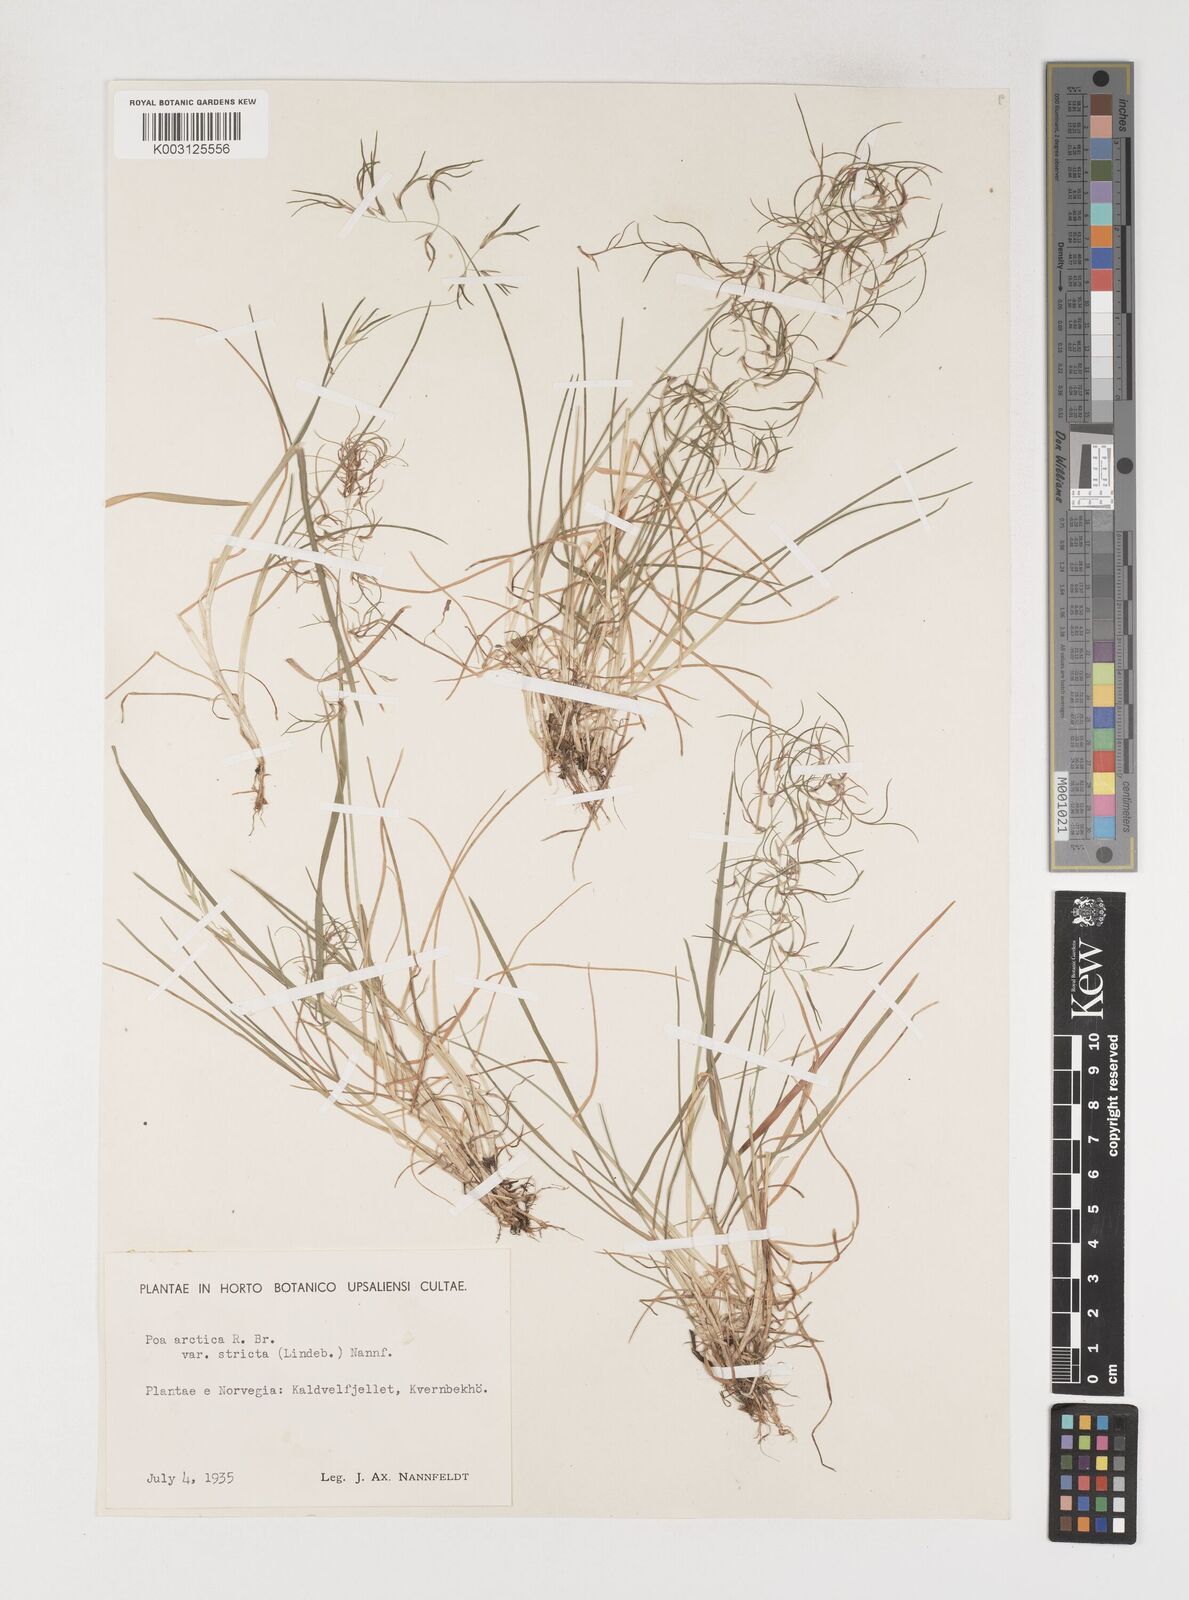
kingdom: Plantae
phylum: Tracheophyta
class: Liliopsida
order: Poales
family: Poaceae
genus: Poa
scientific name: Poa arctica
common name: Arctic bluegrass
